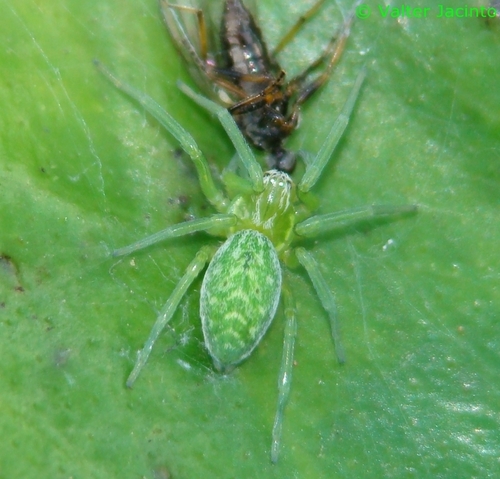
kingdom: Animalia
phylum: Arthropoda
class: Arachnida
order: Araneae
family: Dictynidae
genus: Nigma
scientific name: Nigma walckenaeri
